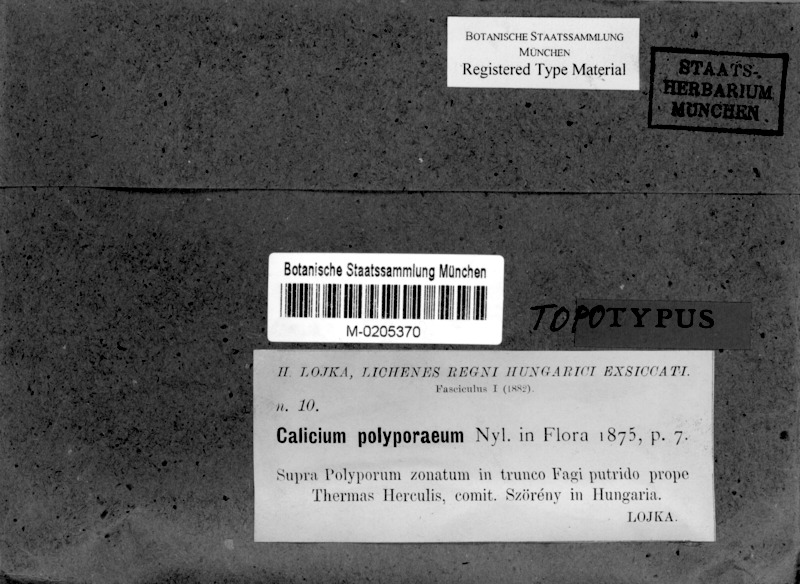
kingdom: Fungi
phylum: Ascomycota
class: Eurotiomycetes
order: Mycocaliciales
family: Mycocaliciaceae
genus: Phaeocalicium
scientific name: Phaeocalicium polyporaeum
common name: Fairy pins
